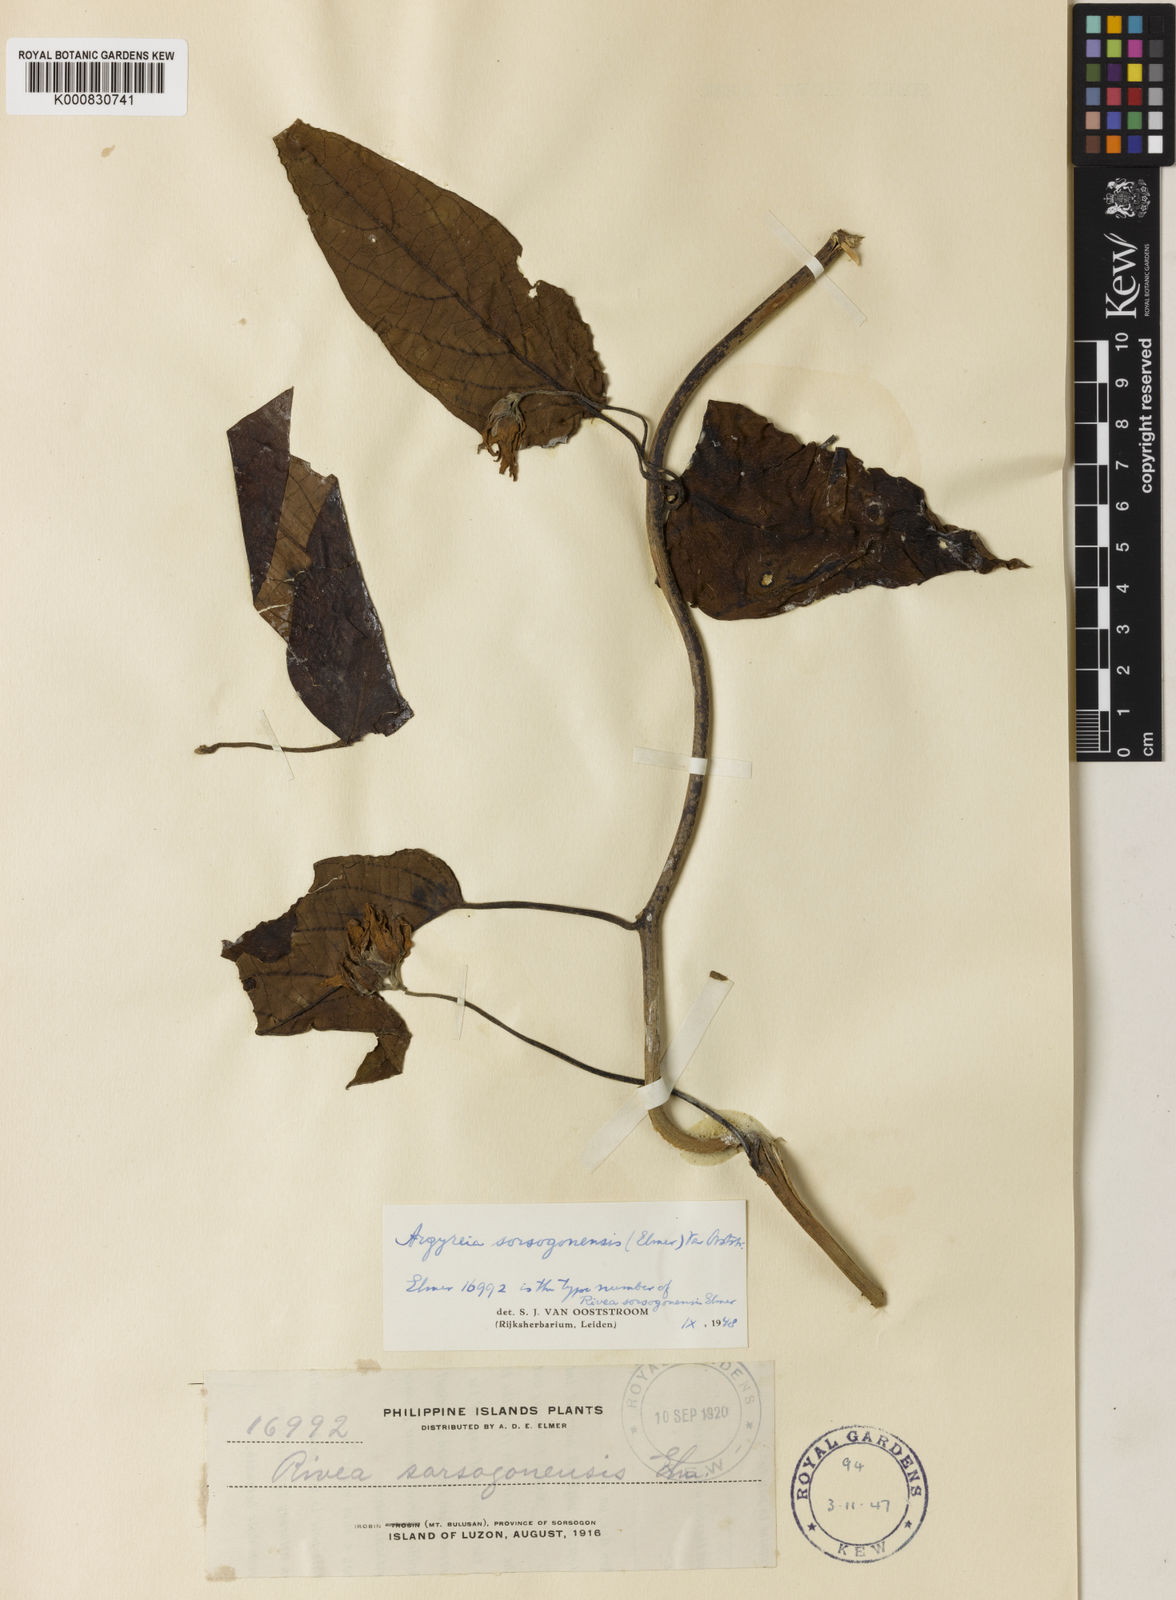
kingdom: Plantae
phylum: Tracheophyta
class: Magnoliopsida
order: Solanales
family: Convolvulaceae
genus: Argyreia
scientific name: Argyreia
